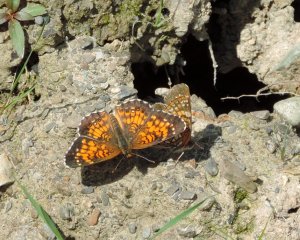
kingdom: Animalia
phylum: Arthropoda
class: Insecta
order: Lepidoptera
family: Nymphalidae
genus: Chlosyne
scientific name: Chlosyne harrisii
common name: Harris's Checkerspot
